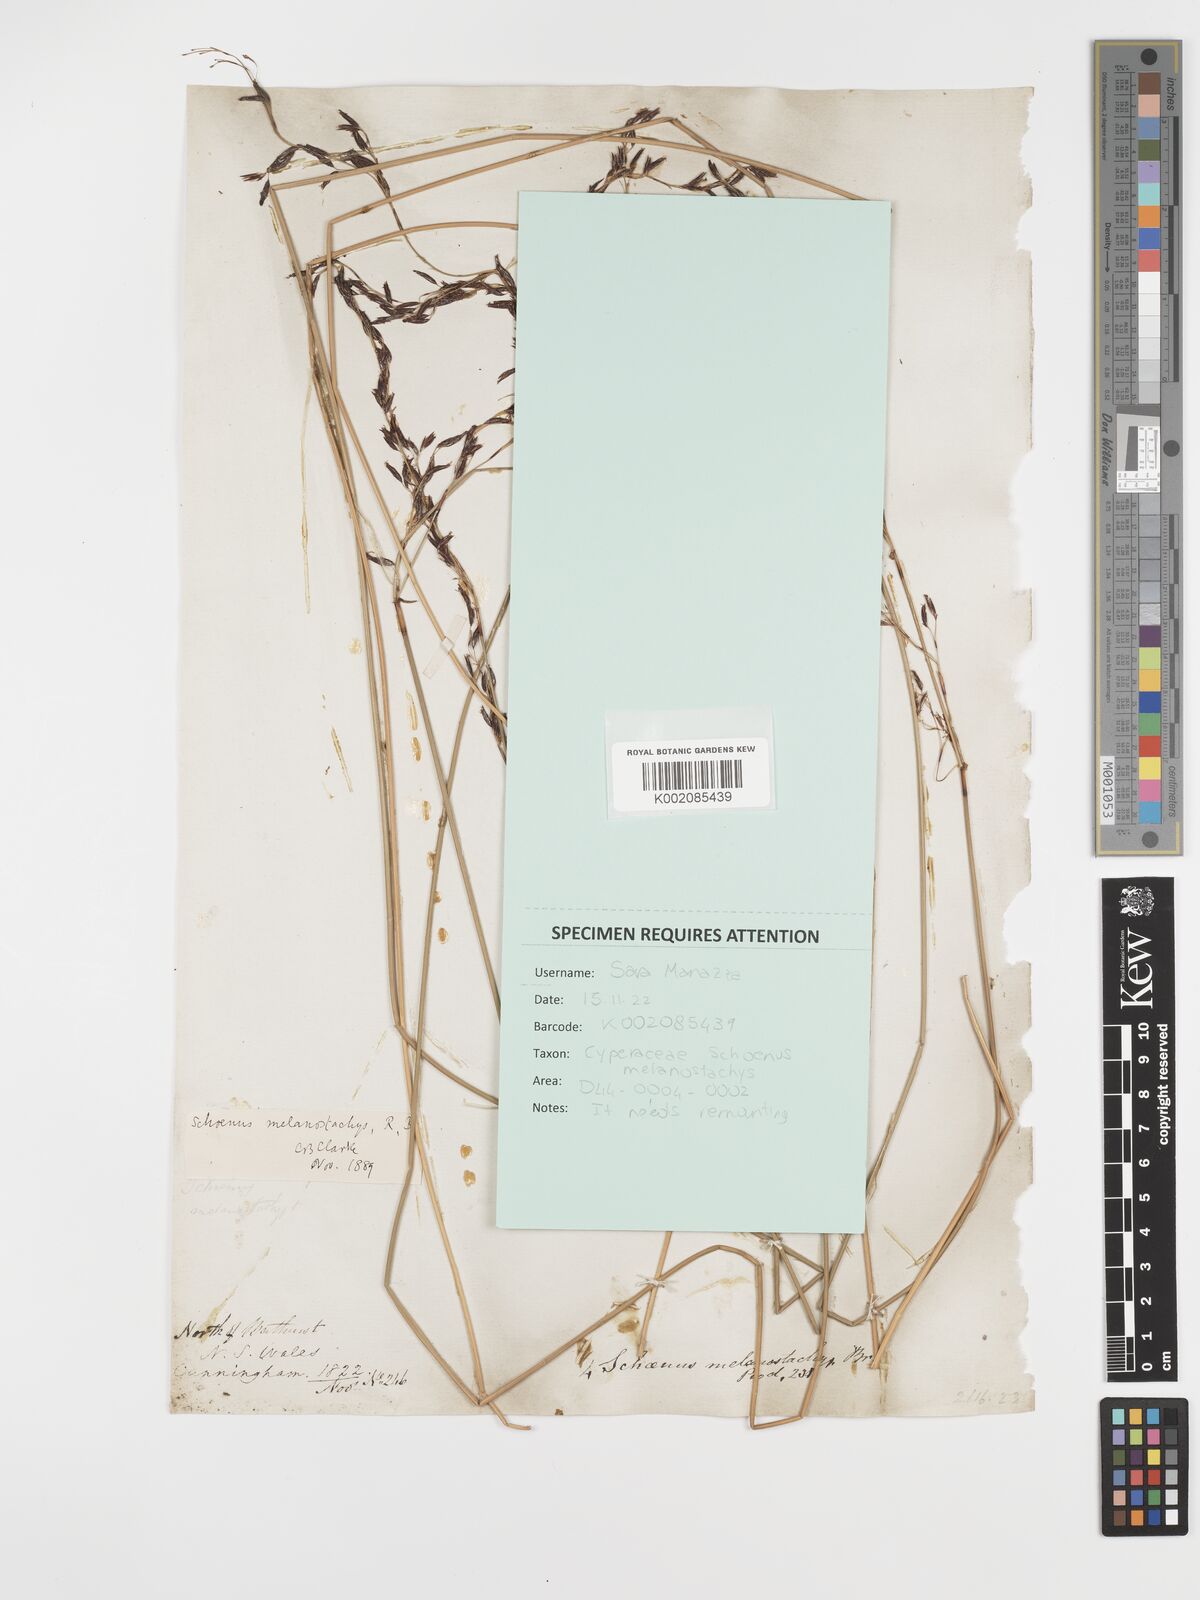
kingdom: Plantae
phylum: Tracheophyta
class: Liliopsida
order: Poales
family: Cyperaceae
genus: Schoenus
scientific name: Schoenus melanostachys
